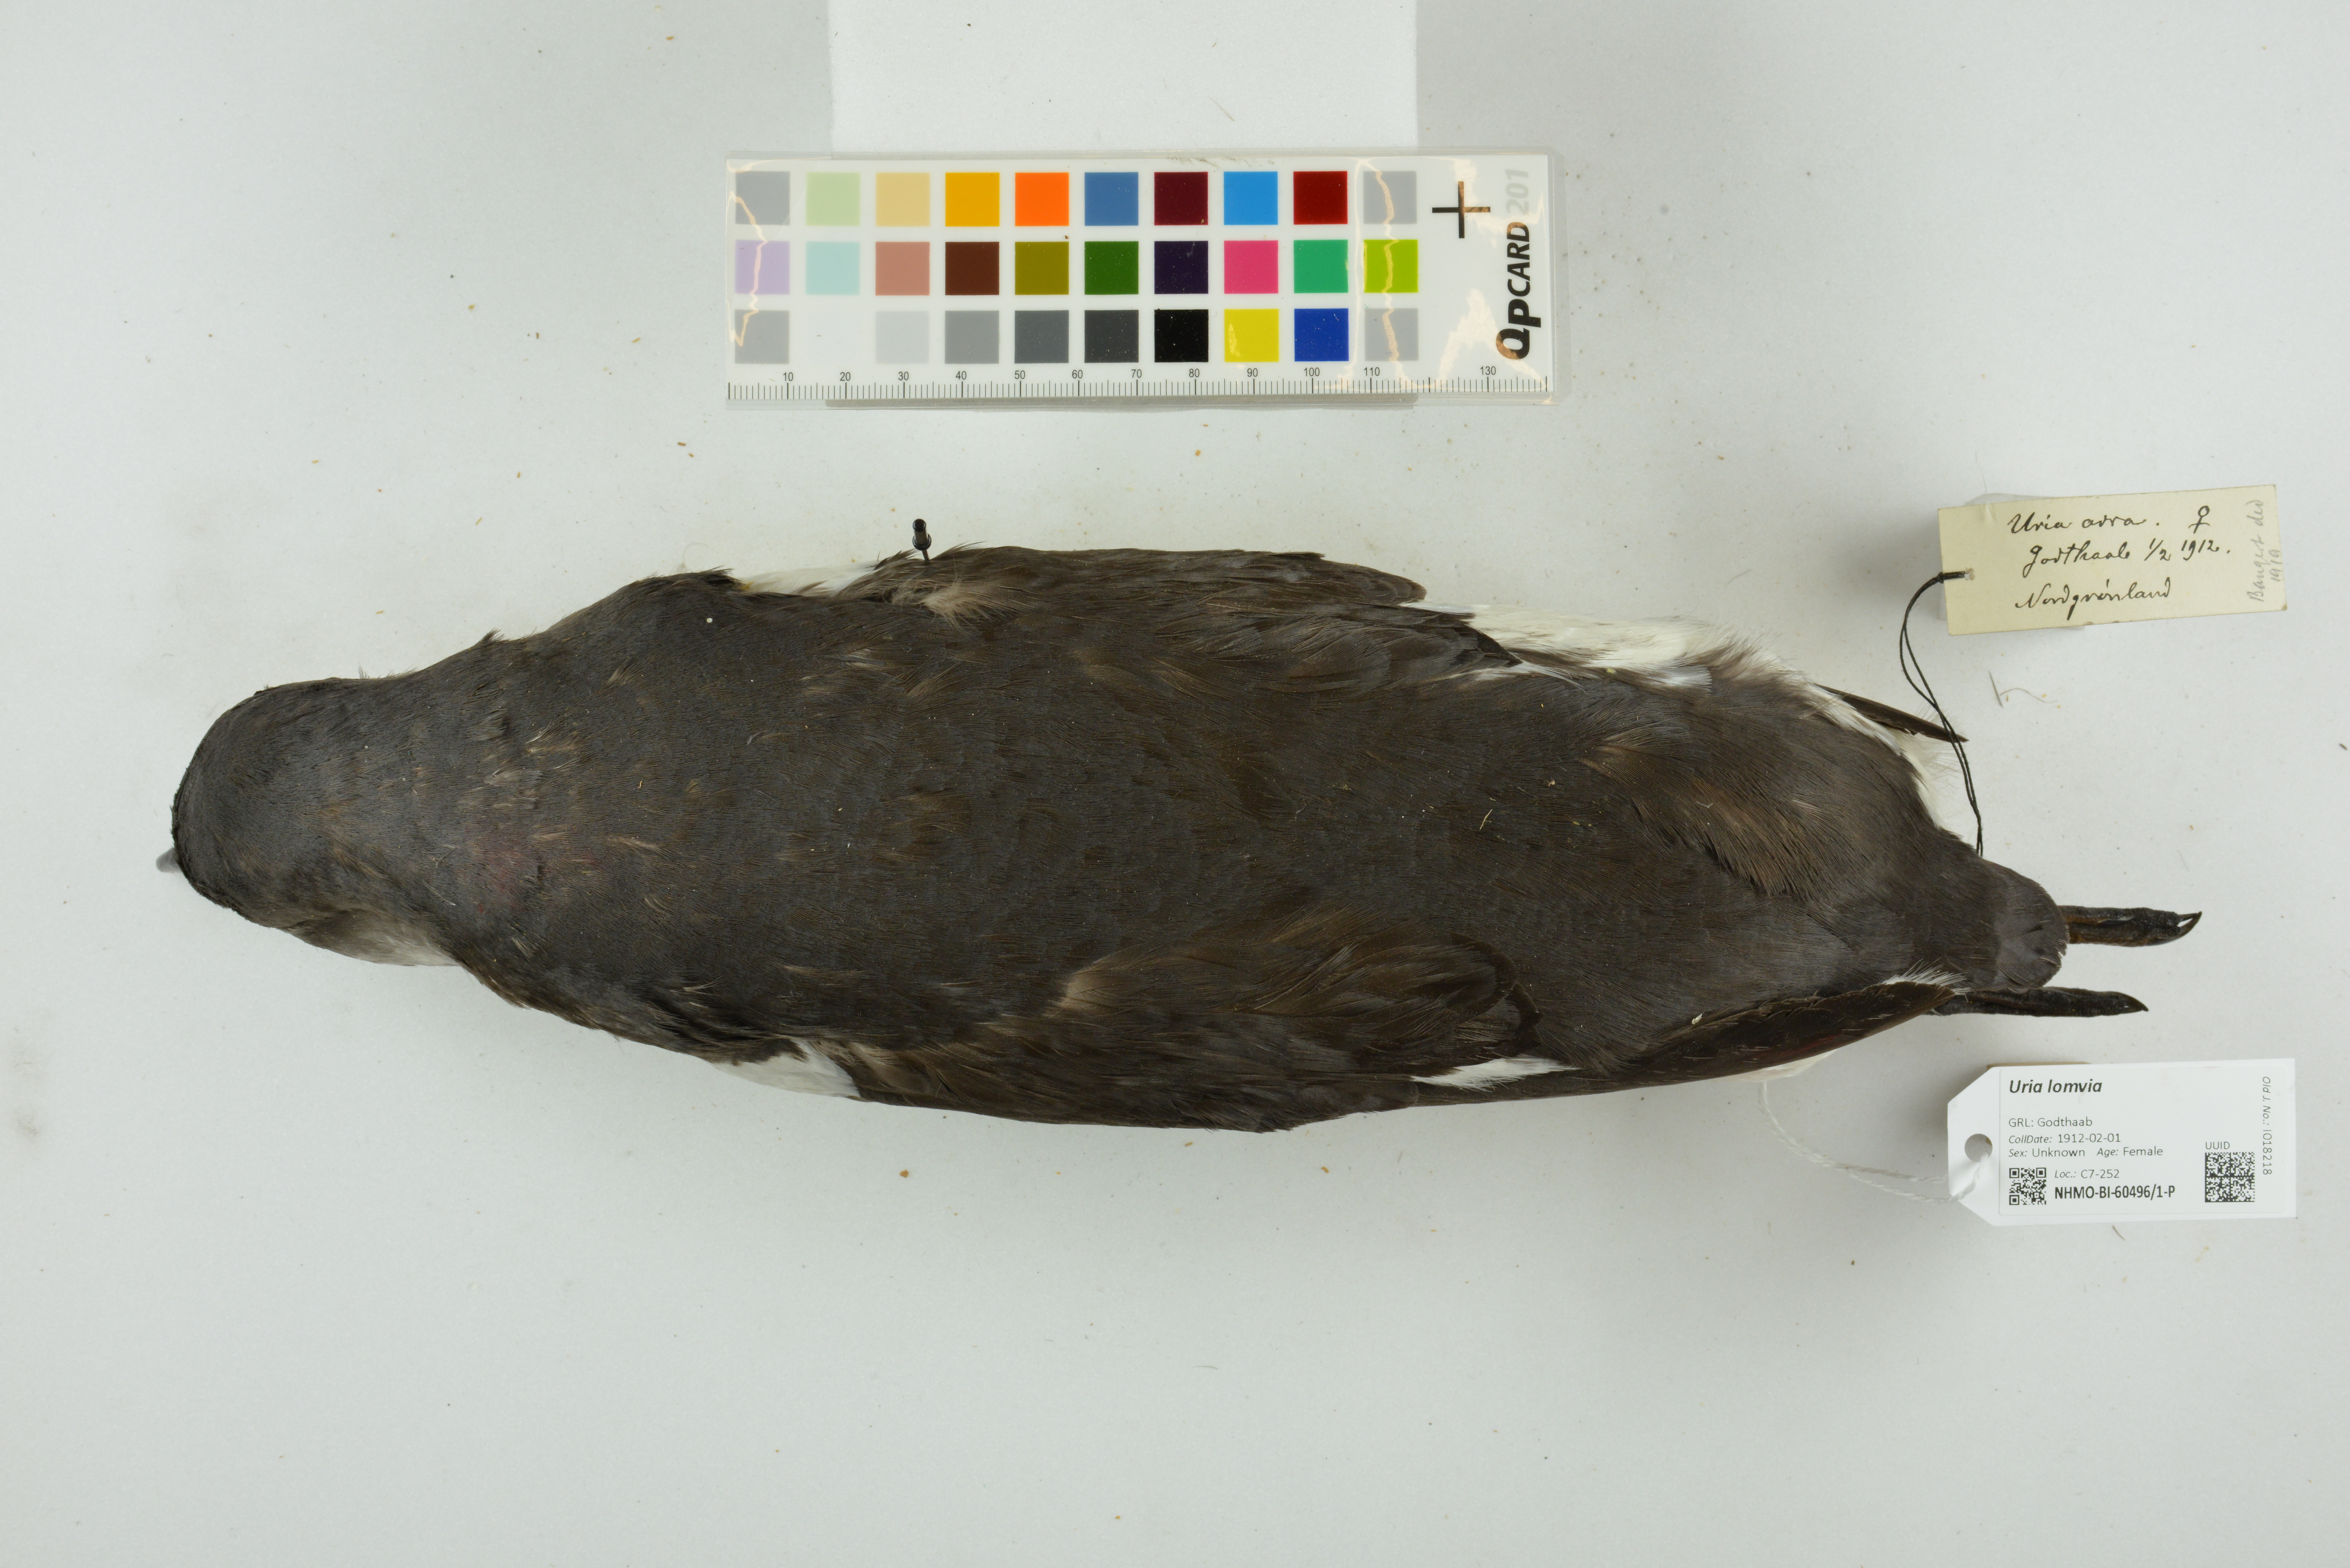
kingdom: Animalia
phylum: Chordata
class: Aves
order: Charadriiformes
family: Alcidae
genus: Uria
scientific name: Uria lomvia
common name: Thick-billed murre
